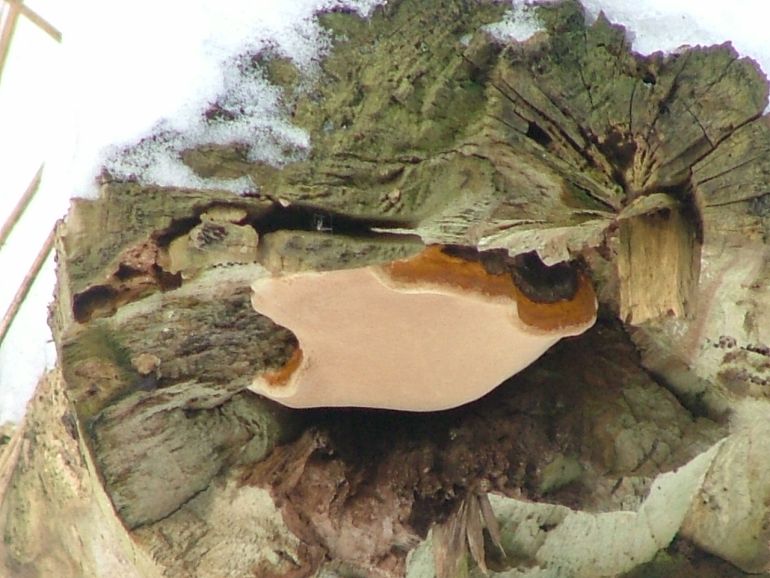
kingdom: Fungi
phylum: Basidiomycota
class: Agaricomycetes
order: Polyporales
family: Fomitopsidaceae
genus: Fomitopsis
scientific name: Fomitopsis pinicola
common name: randbæltet hovporesvamp
